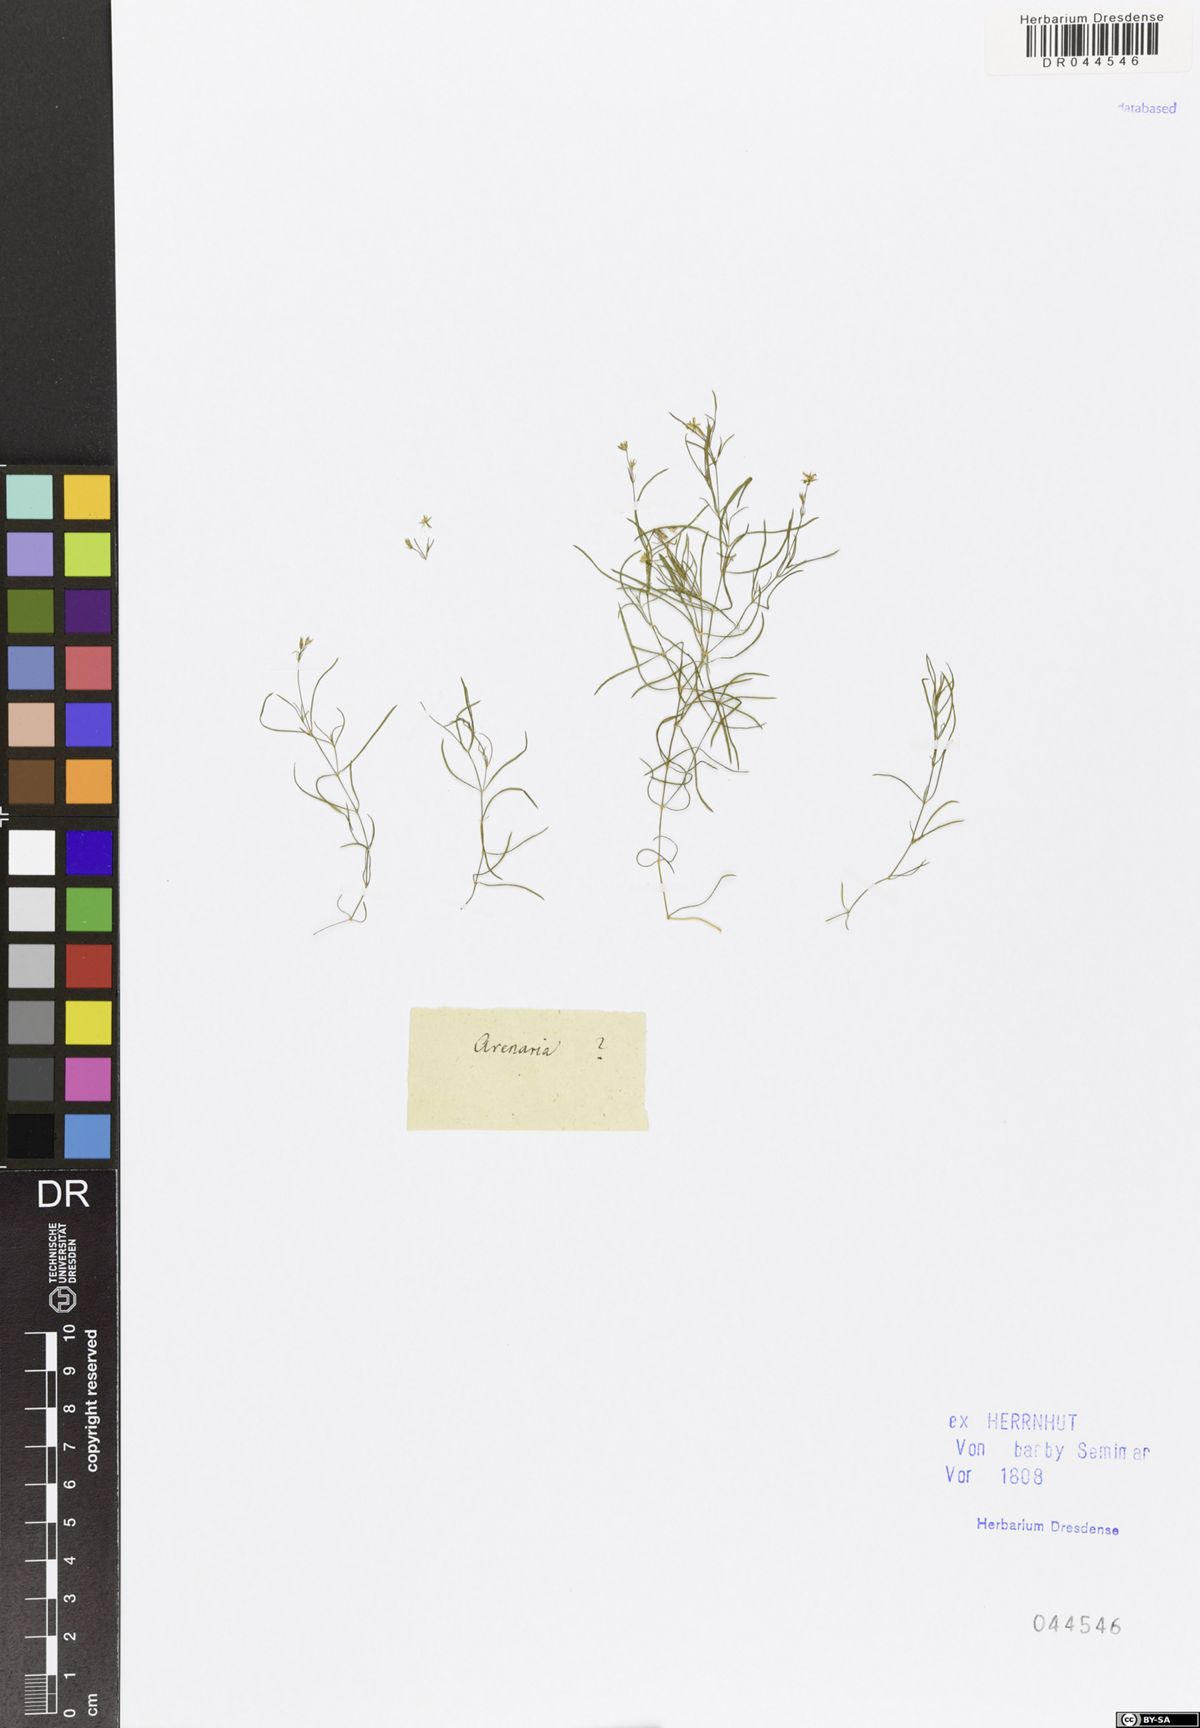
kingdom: Plantae
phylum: Tracheophyta
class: Magnoliopsida
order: Caryophyllales
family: Caryophyllaceae
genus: Moehringia
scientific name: Moehringia muscosa
